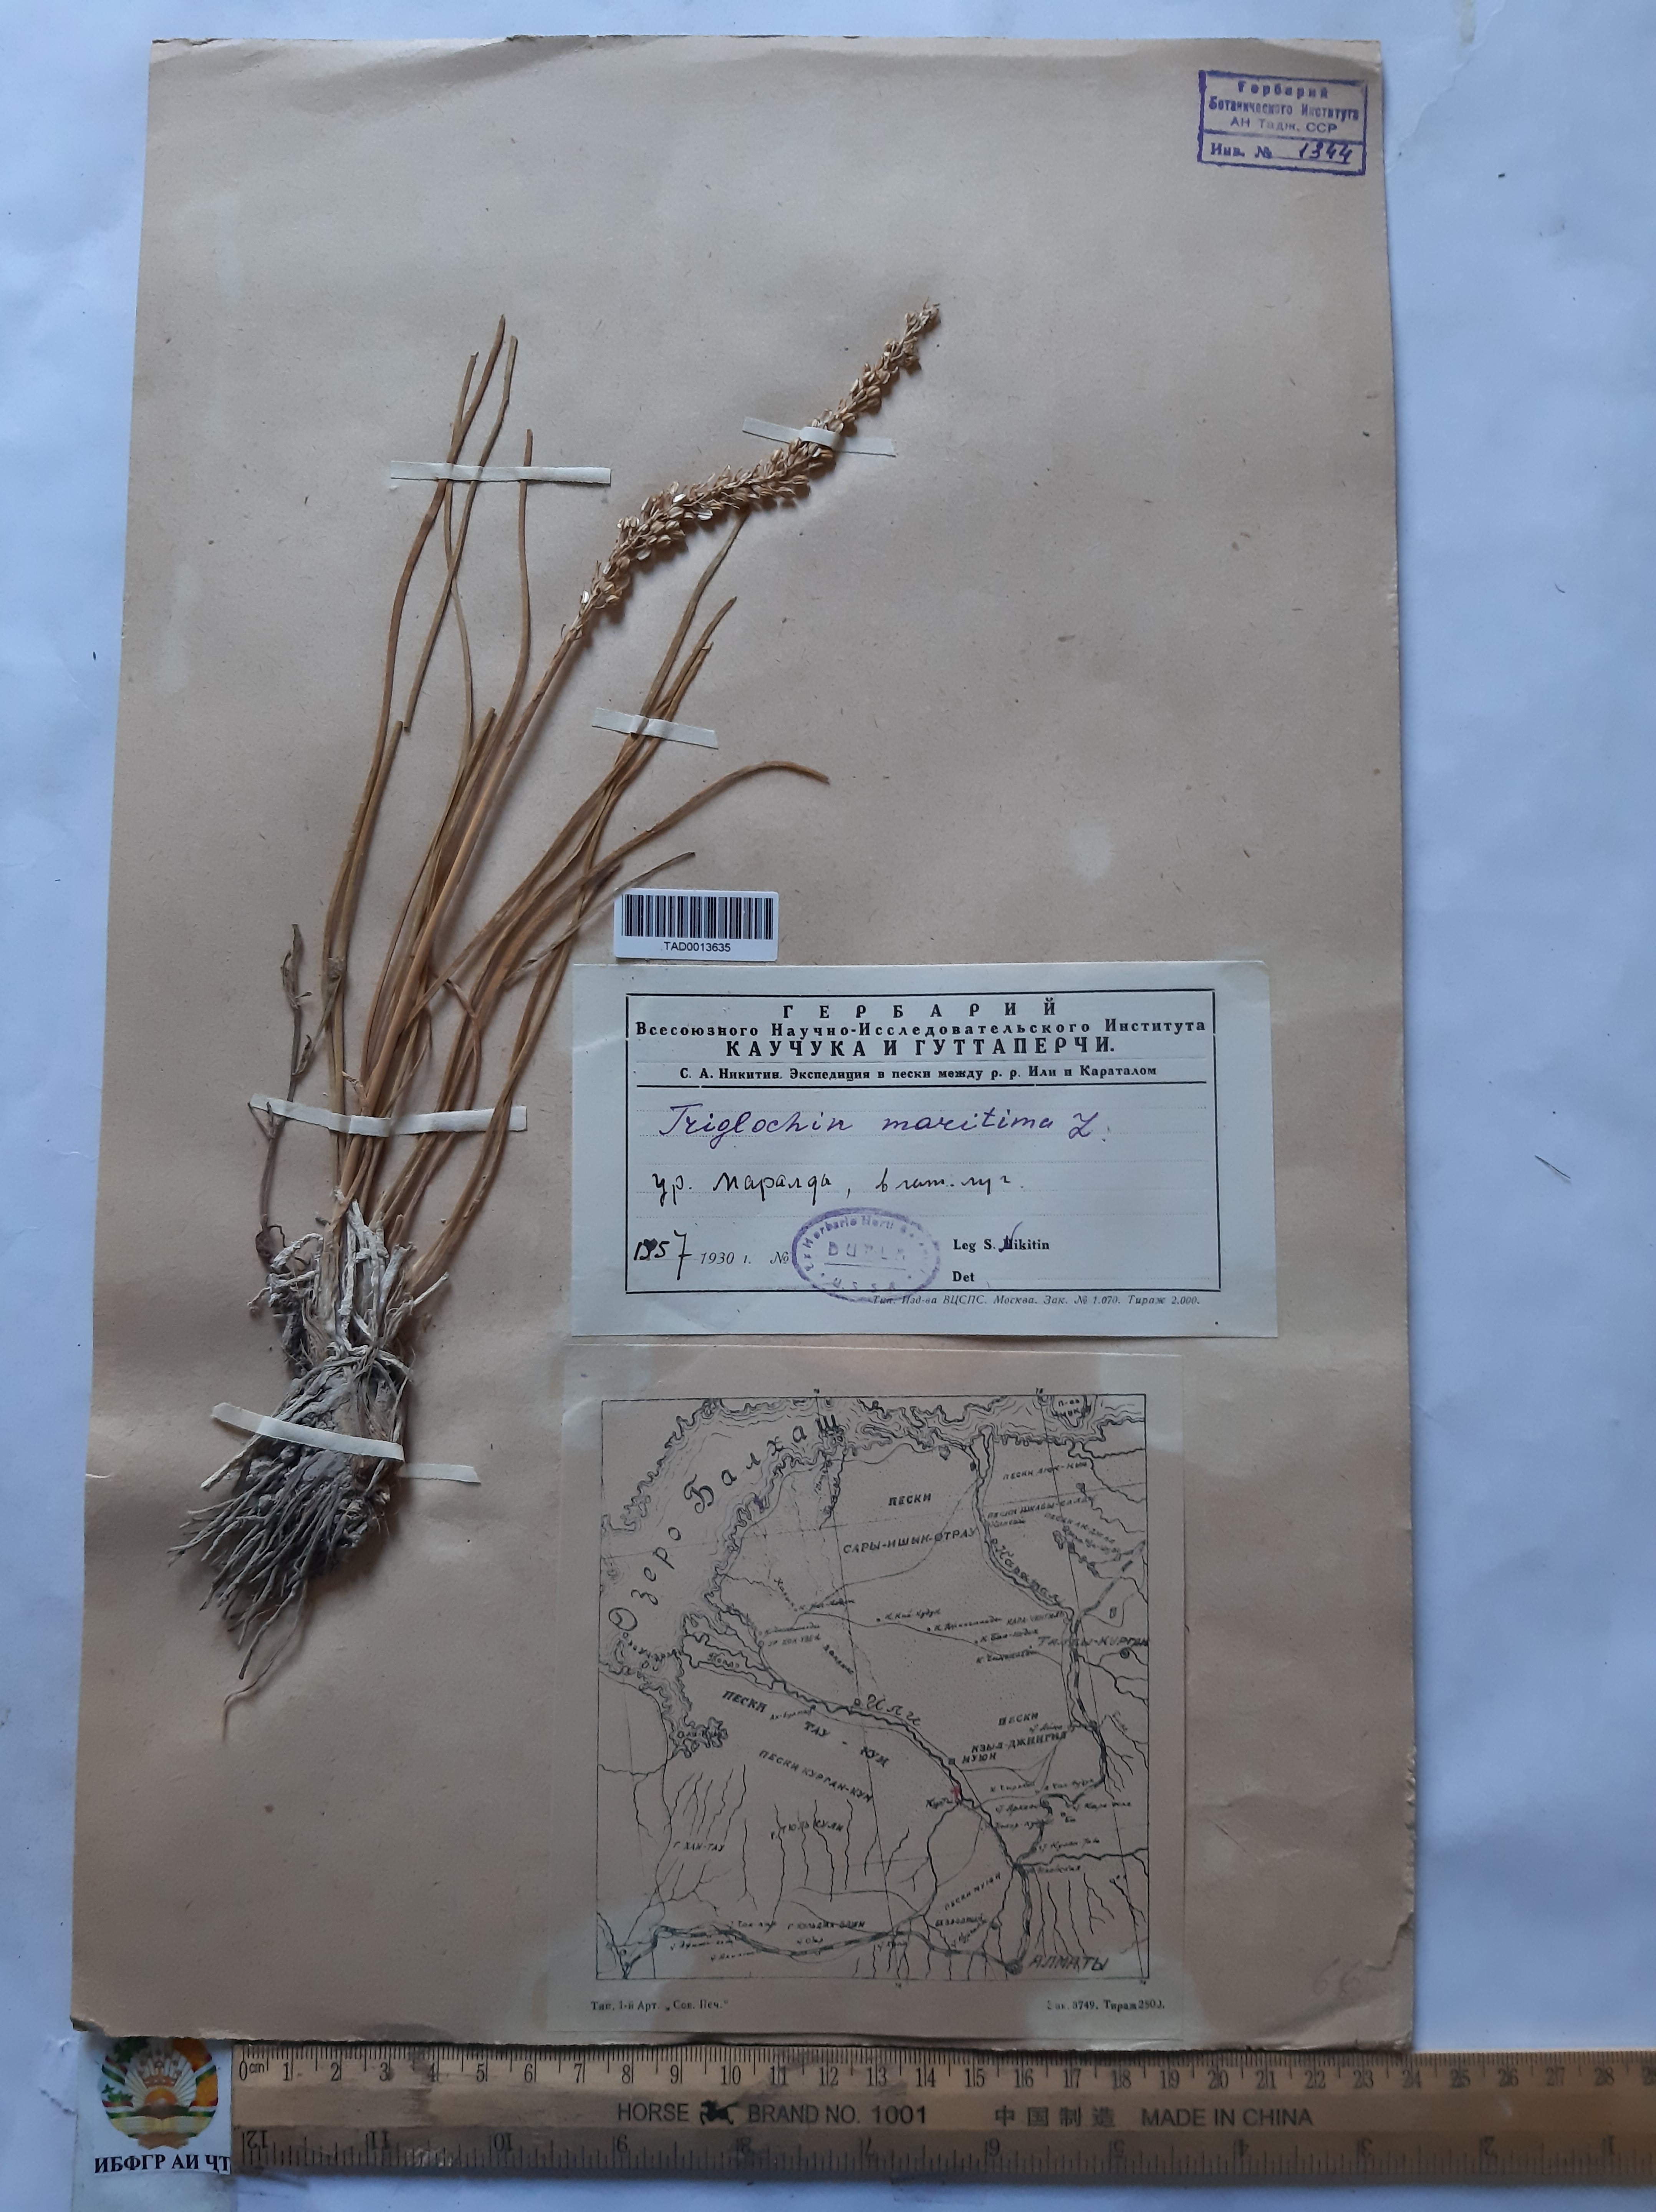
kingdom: Plantae
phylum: Tracheophyta
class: Liliopsida
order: Alismatales
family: Juncaginaceae
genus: Triglochin
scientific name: Triglochin maritima
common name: Sea arrowgrass
